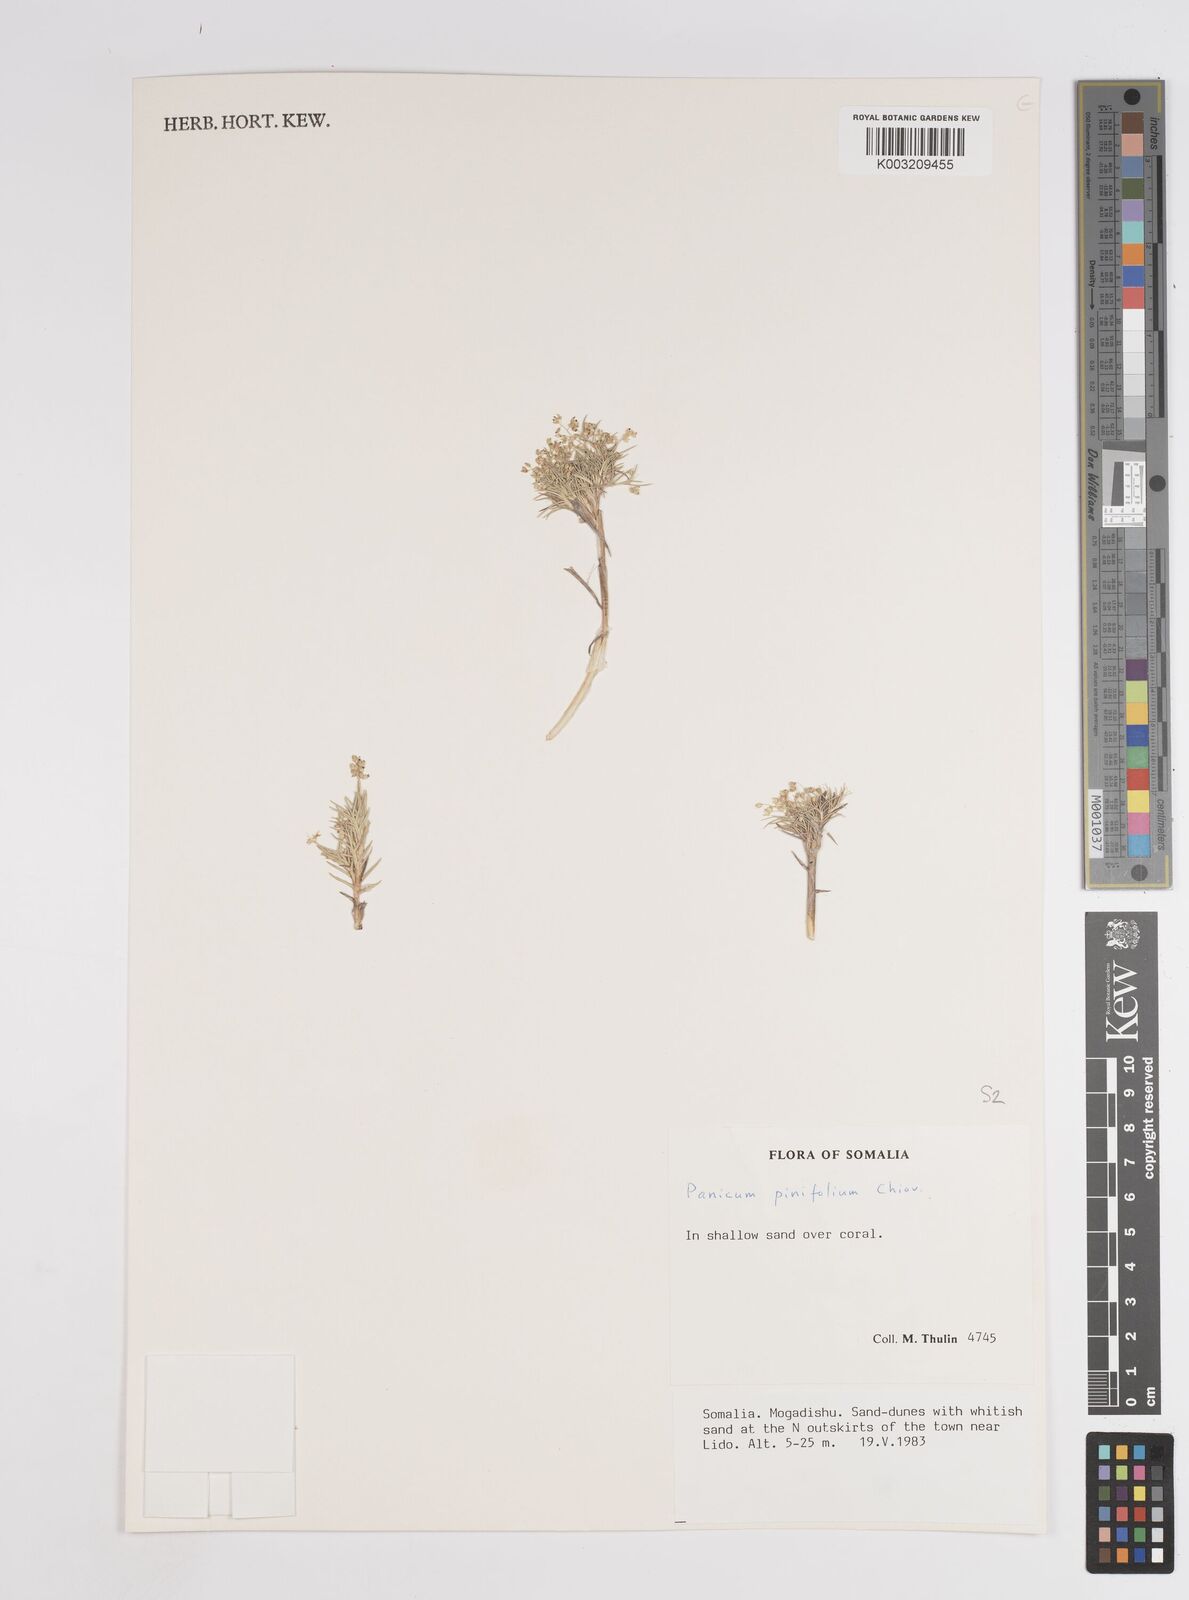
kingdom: Plantae
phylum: Tracheophyta
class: Liliopsida
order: Poales
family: Poaceae
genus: Panicum
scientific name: Panicum pinifolium
